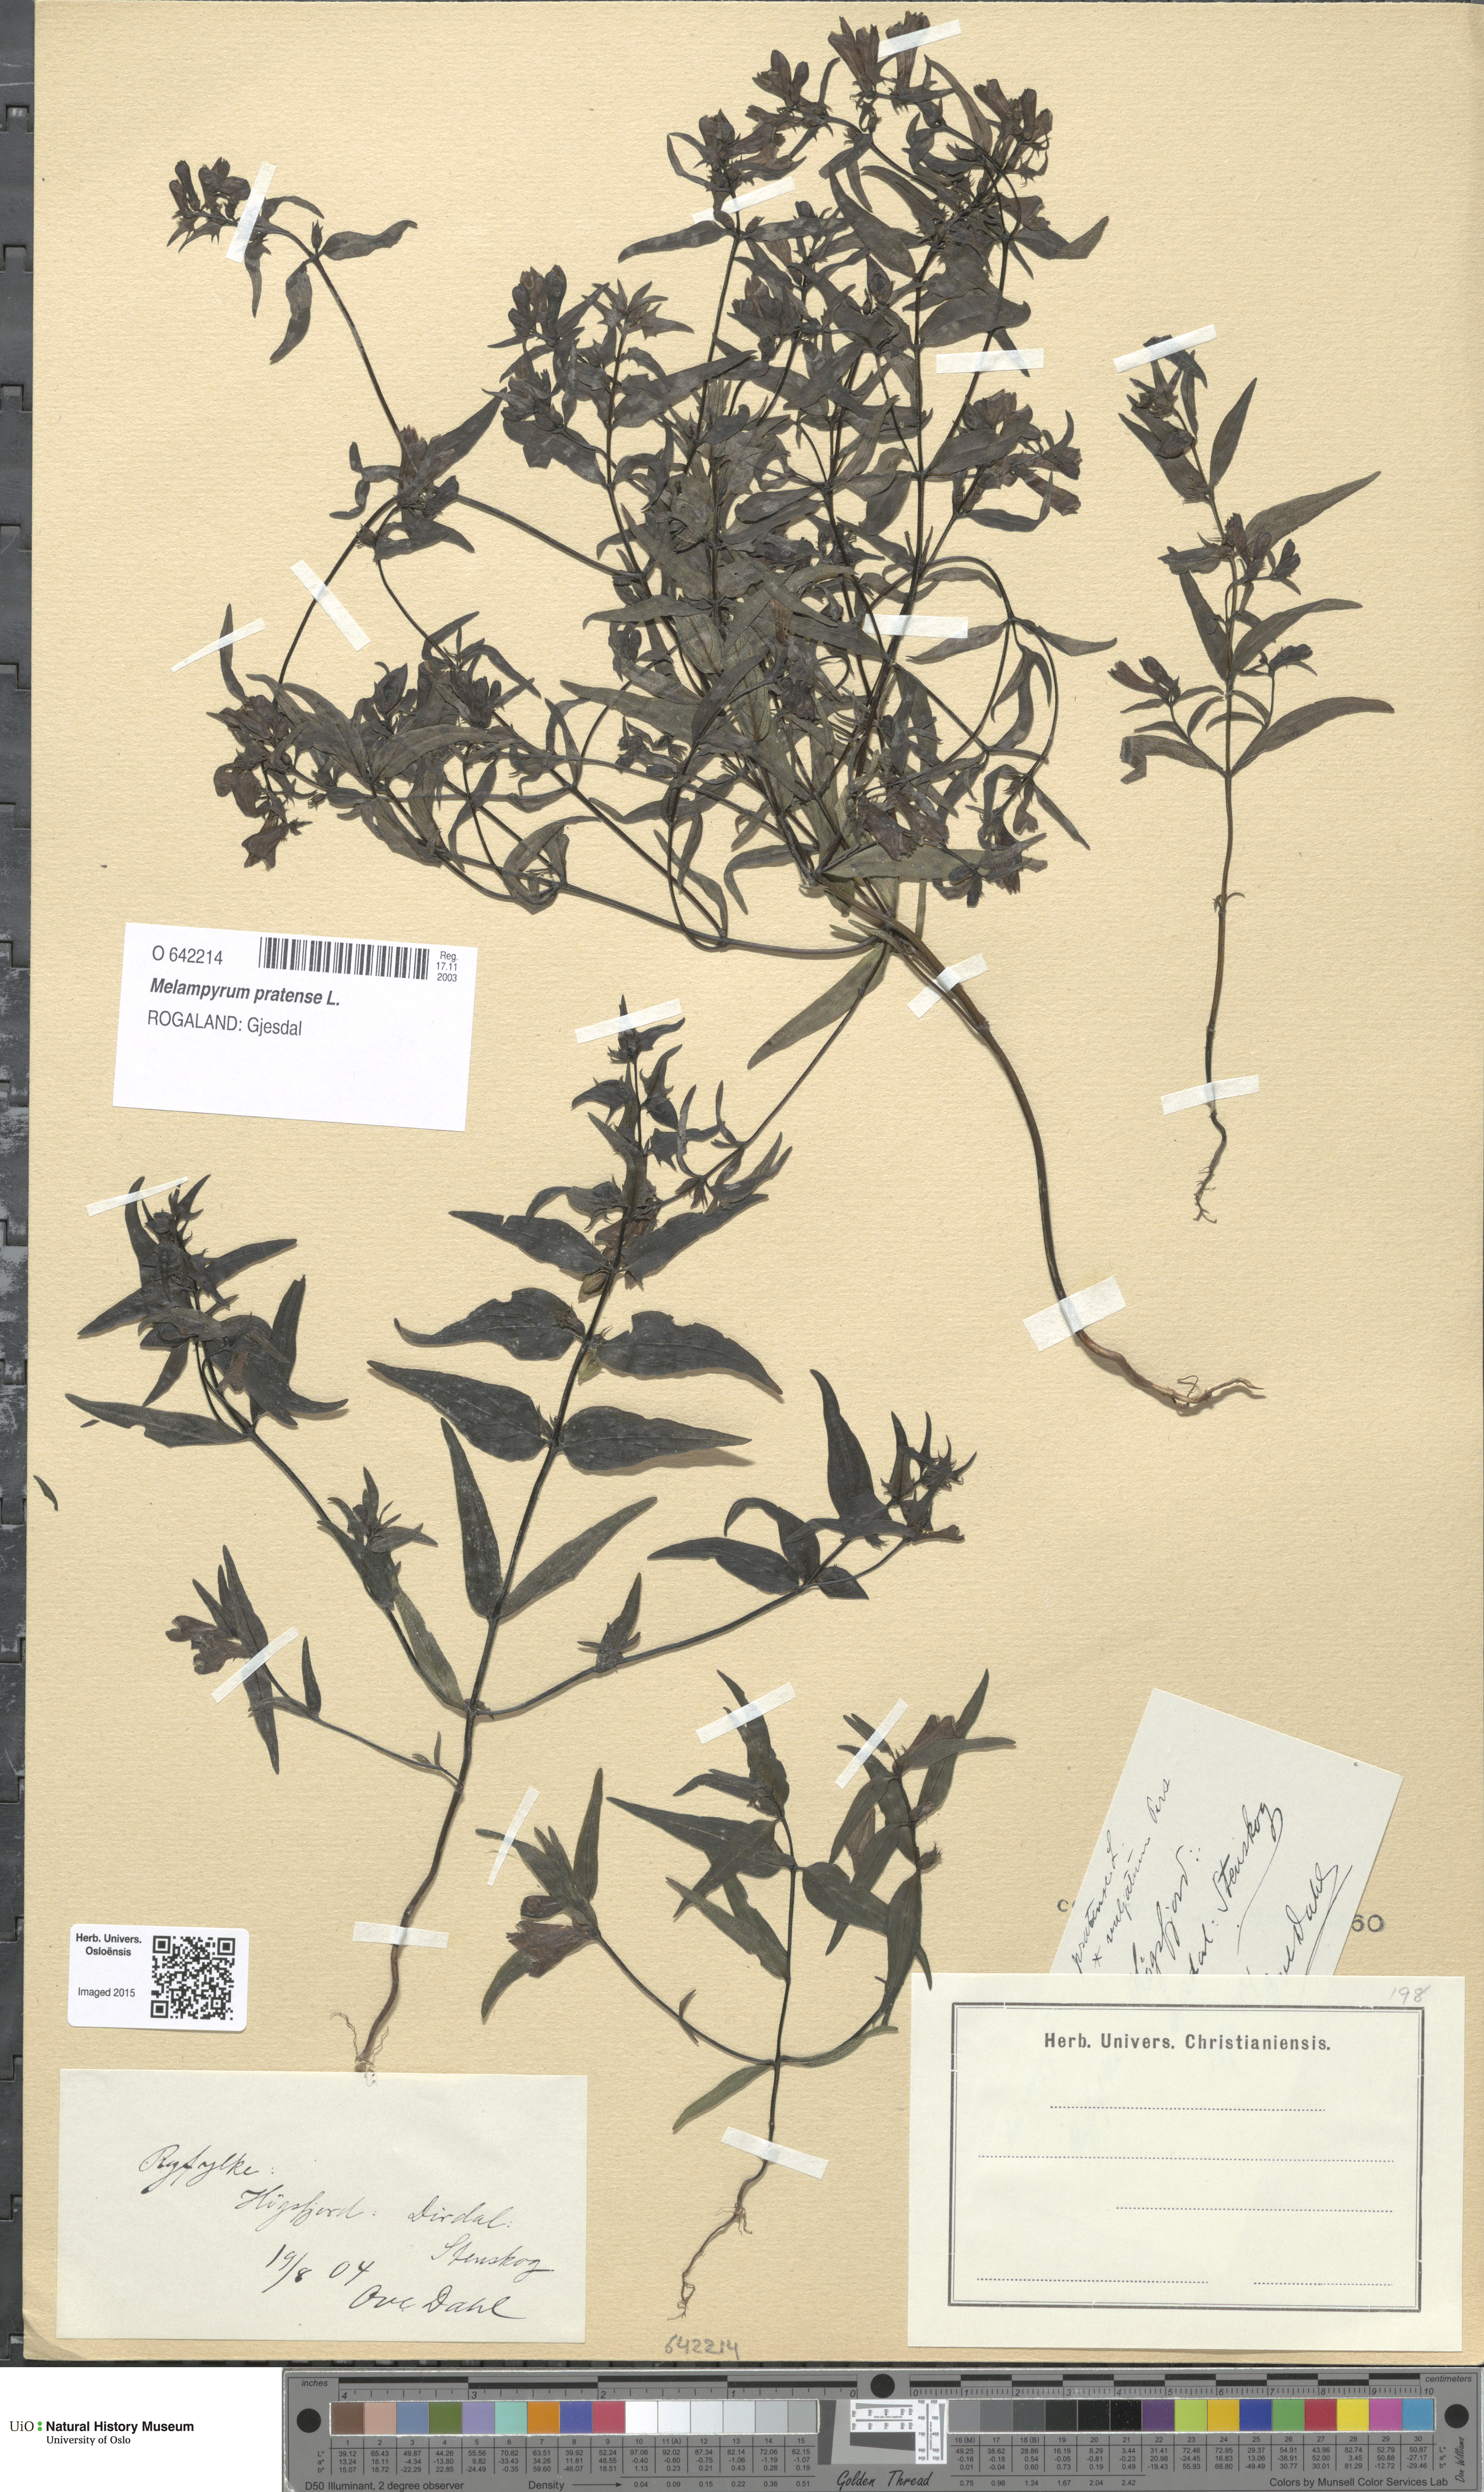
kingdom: Plantae
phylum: Tracheophyta
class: Magnoliopsida
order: Lamiales
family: Orobanchaceae
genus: Melampyrum
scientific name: Melampyrum pratense
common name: Common cow-wheat
